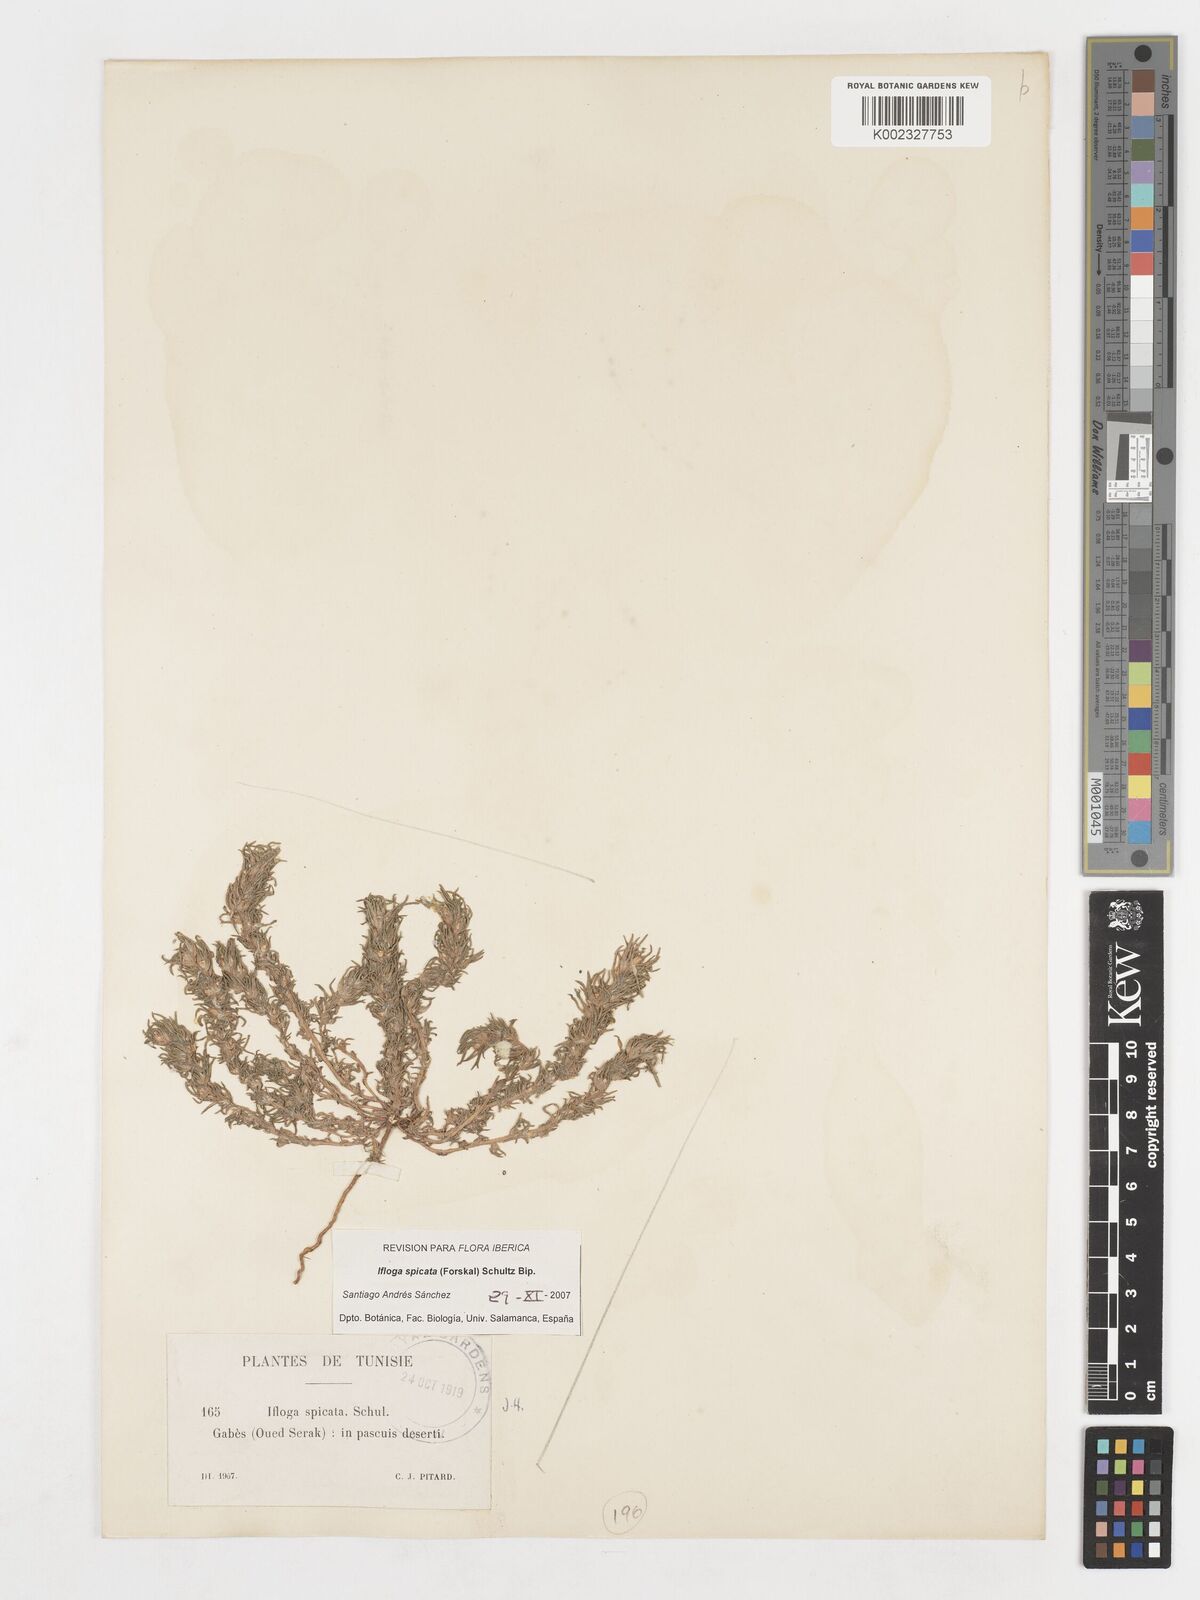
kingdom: Plantae
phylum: Tracheophyta
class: Magnoliopsida
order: Asterales
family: Asteraceae
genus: Ifloga
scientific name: Ifloga spicata
